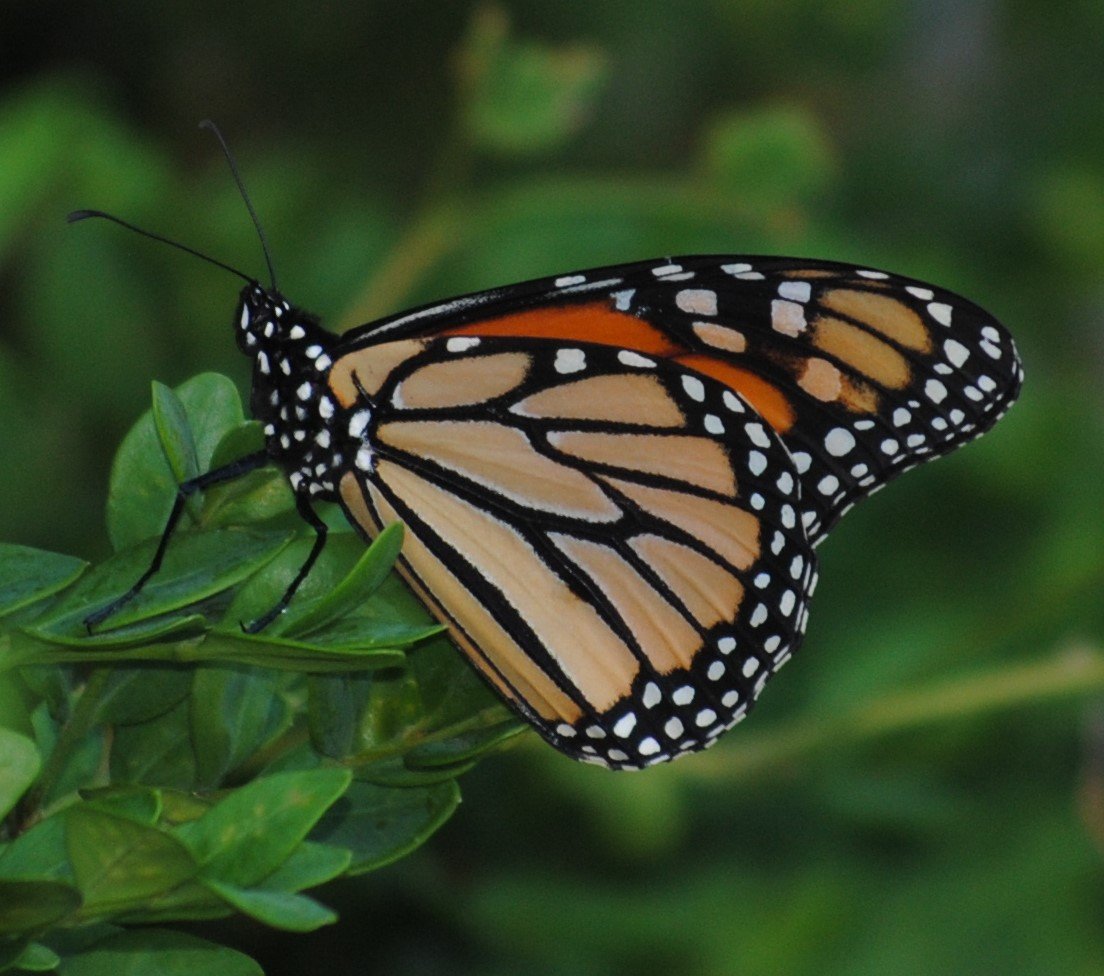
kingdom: Animalia
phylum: Arthropoda
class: Insecta
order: Lepidoptera
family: Nymphalidae
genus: Danaus
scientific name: Danaus plexippus
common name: Monarch
